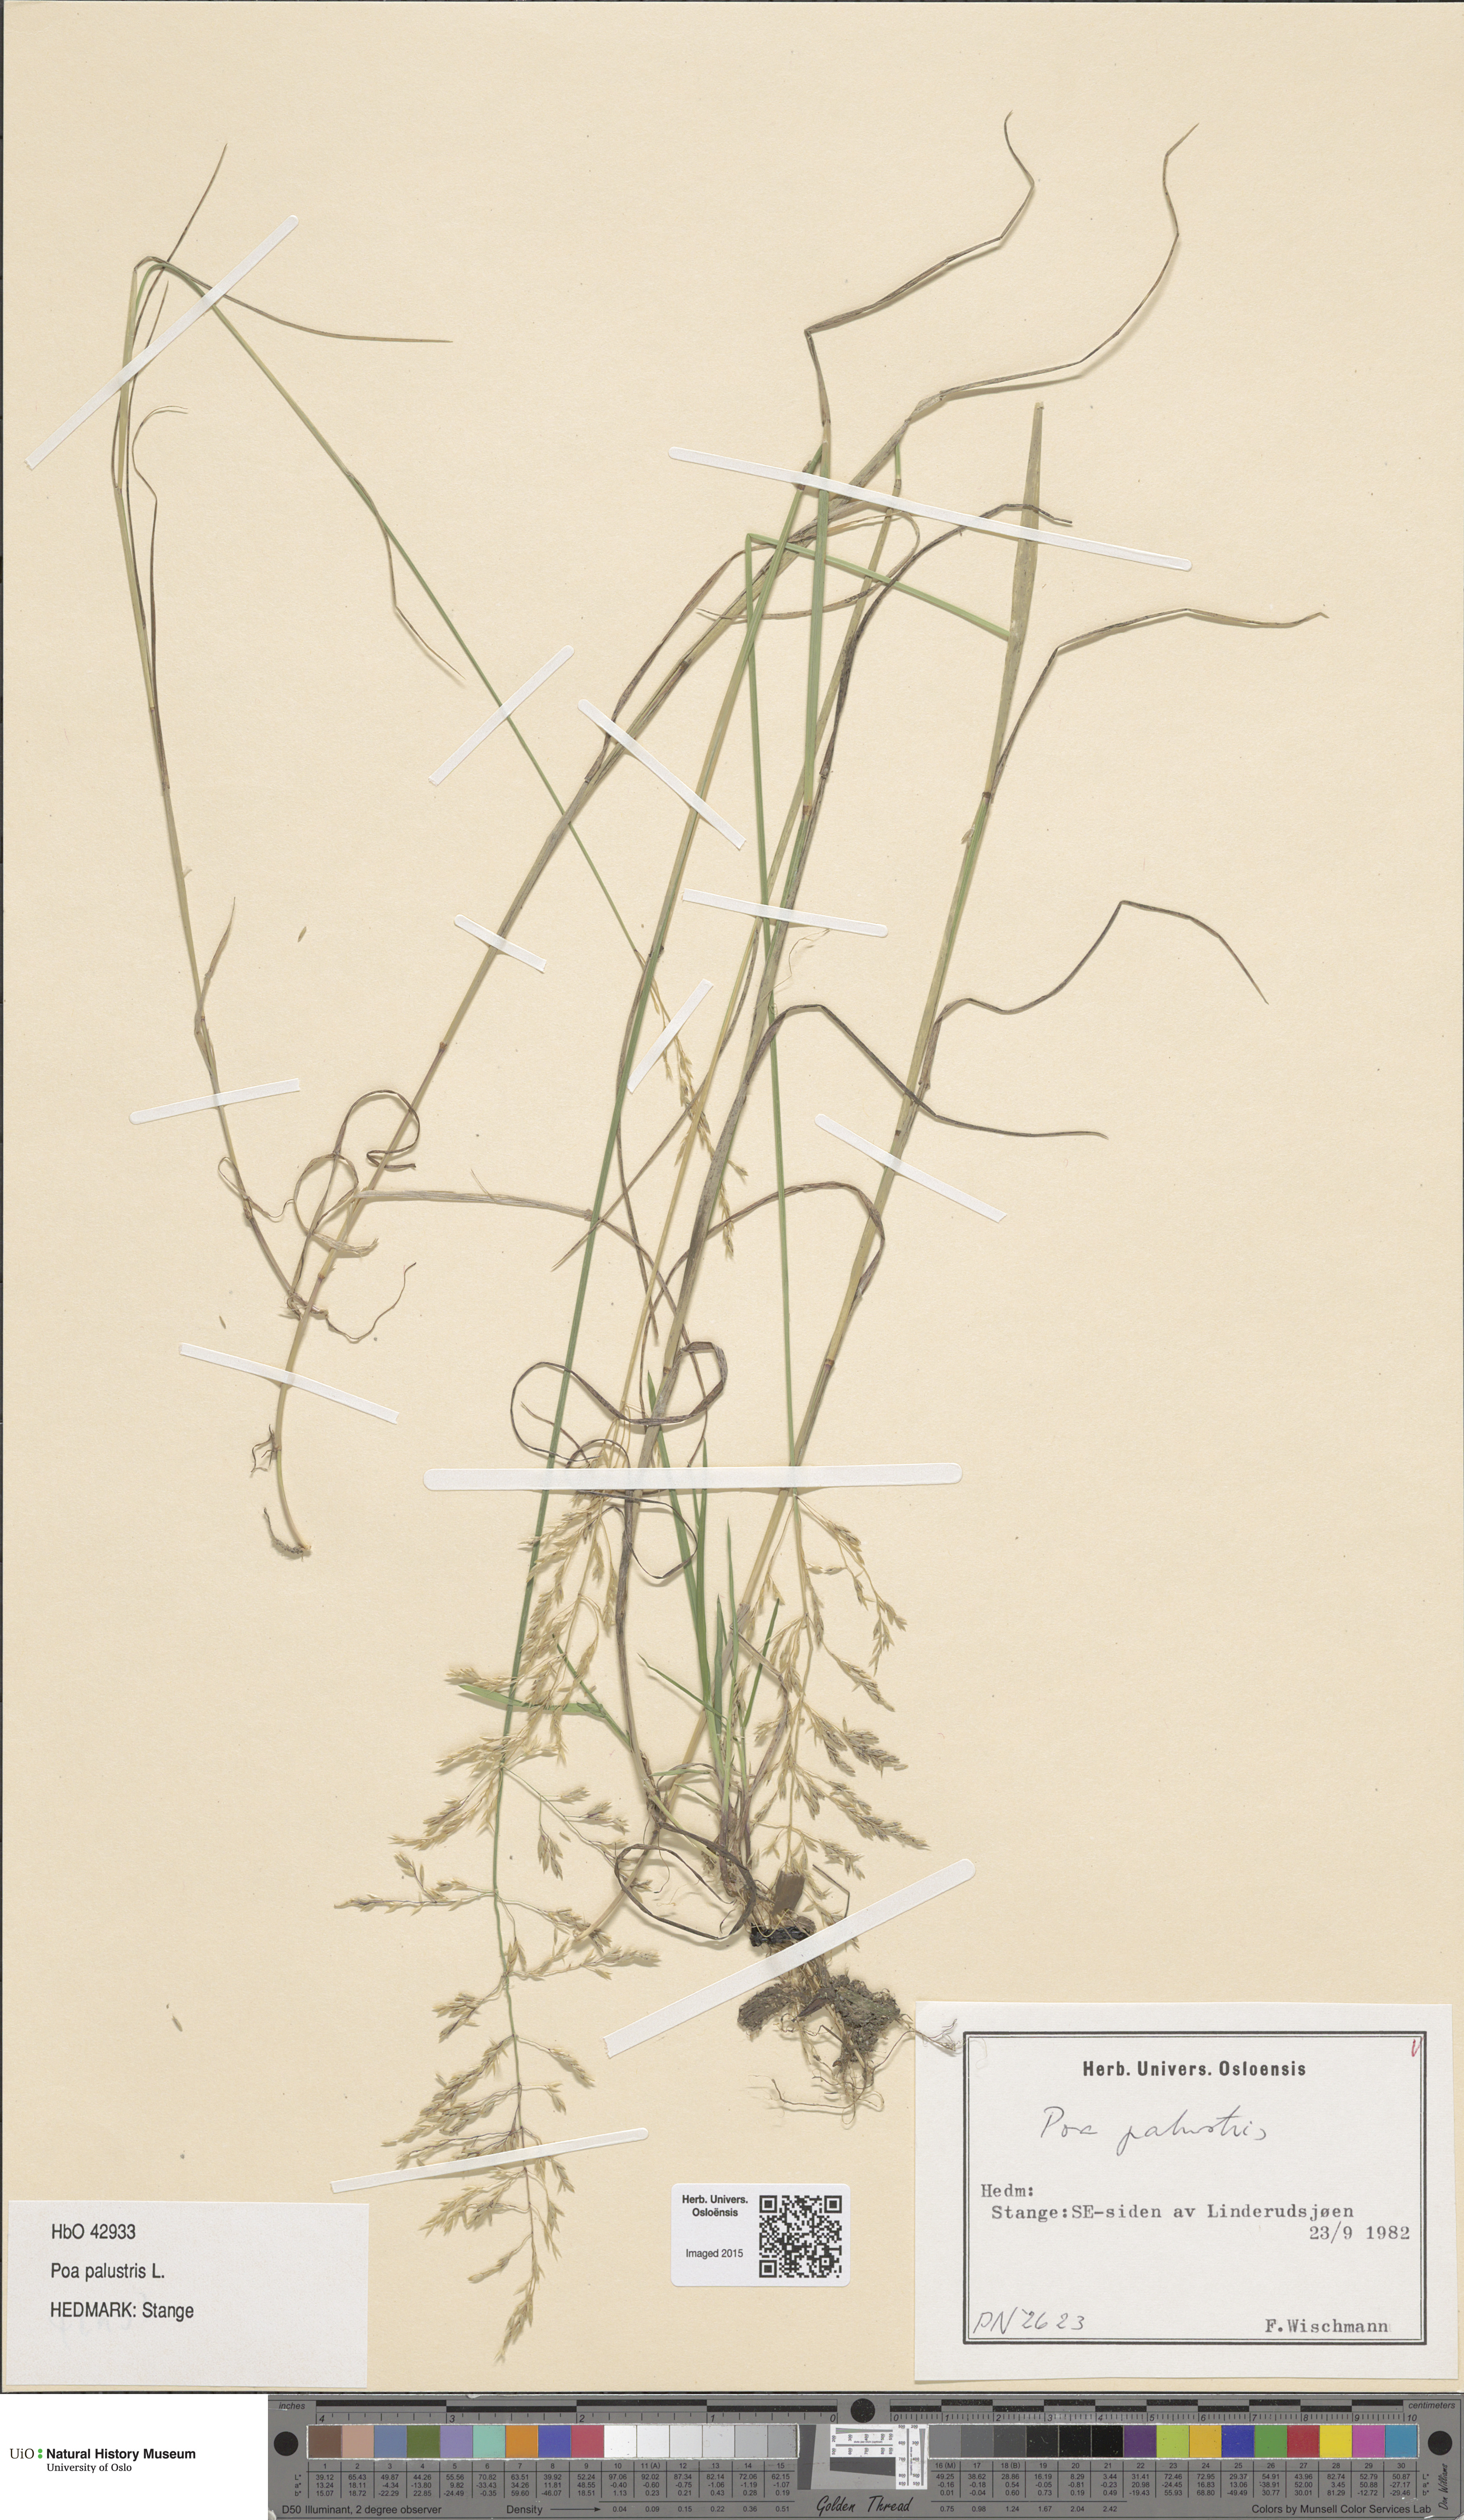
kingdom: Plantae
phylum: Tracheophyta
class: Liliopsida
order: Poales
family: Poaceae
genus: Poa
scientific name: Poa palustris
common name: Swamp meadow-grass
